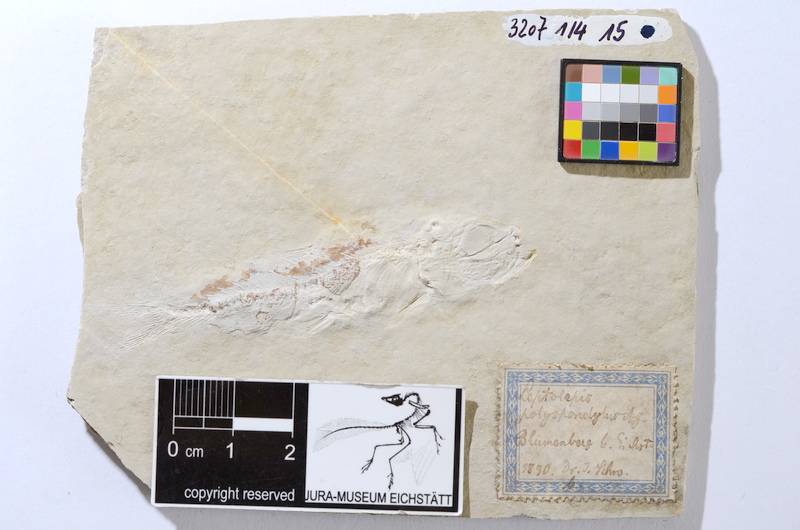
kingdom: Animalia
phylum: Chordata
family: Ascalaboidae
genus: Tharsis
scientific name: Tharsis dubius
